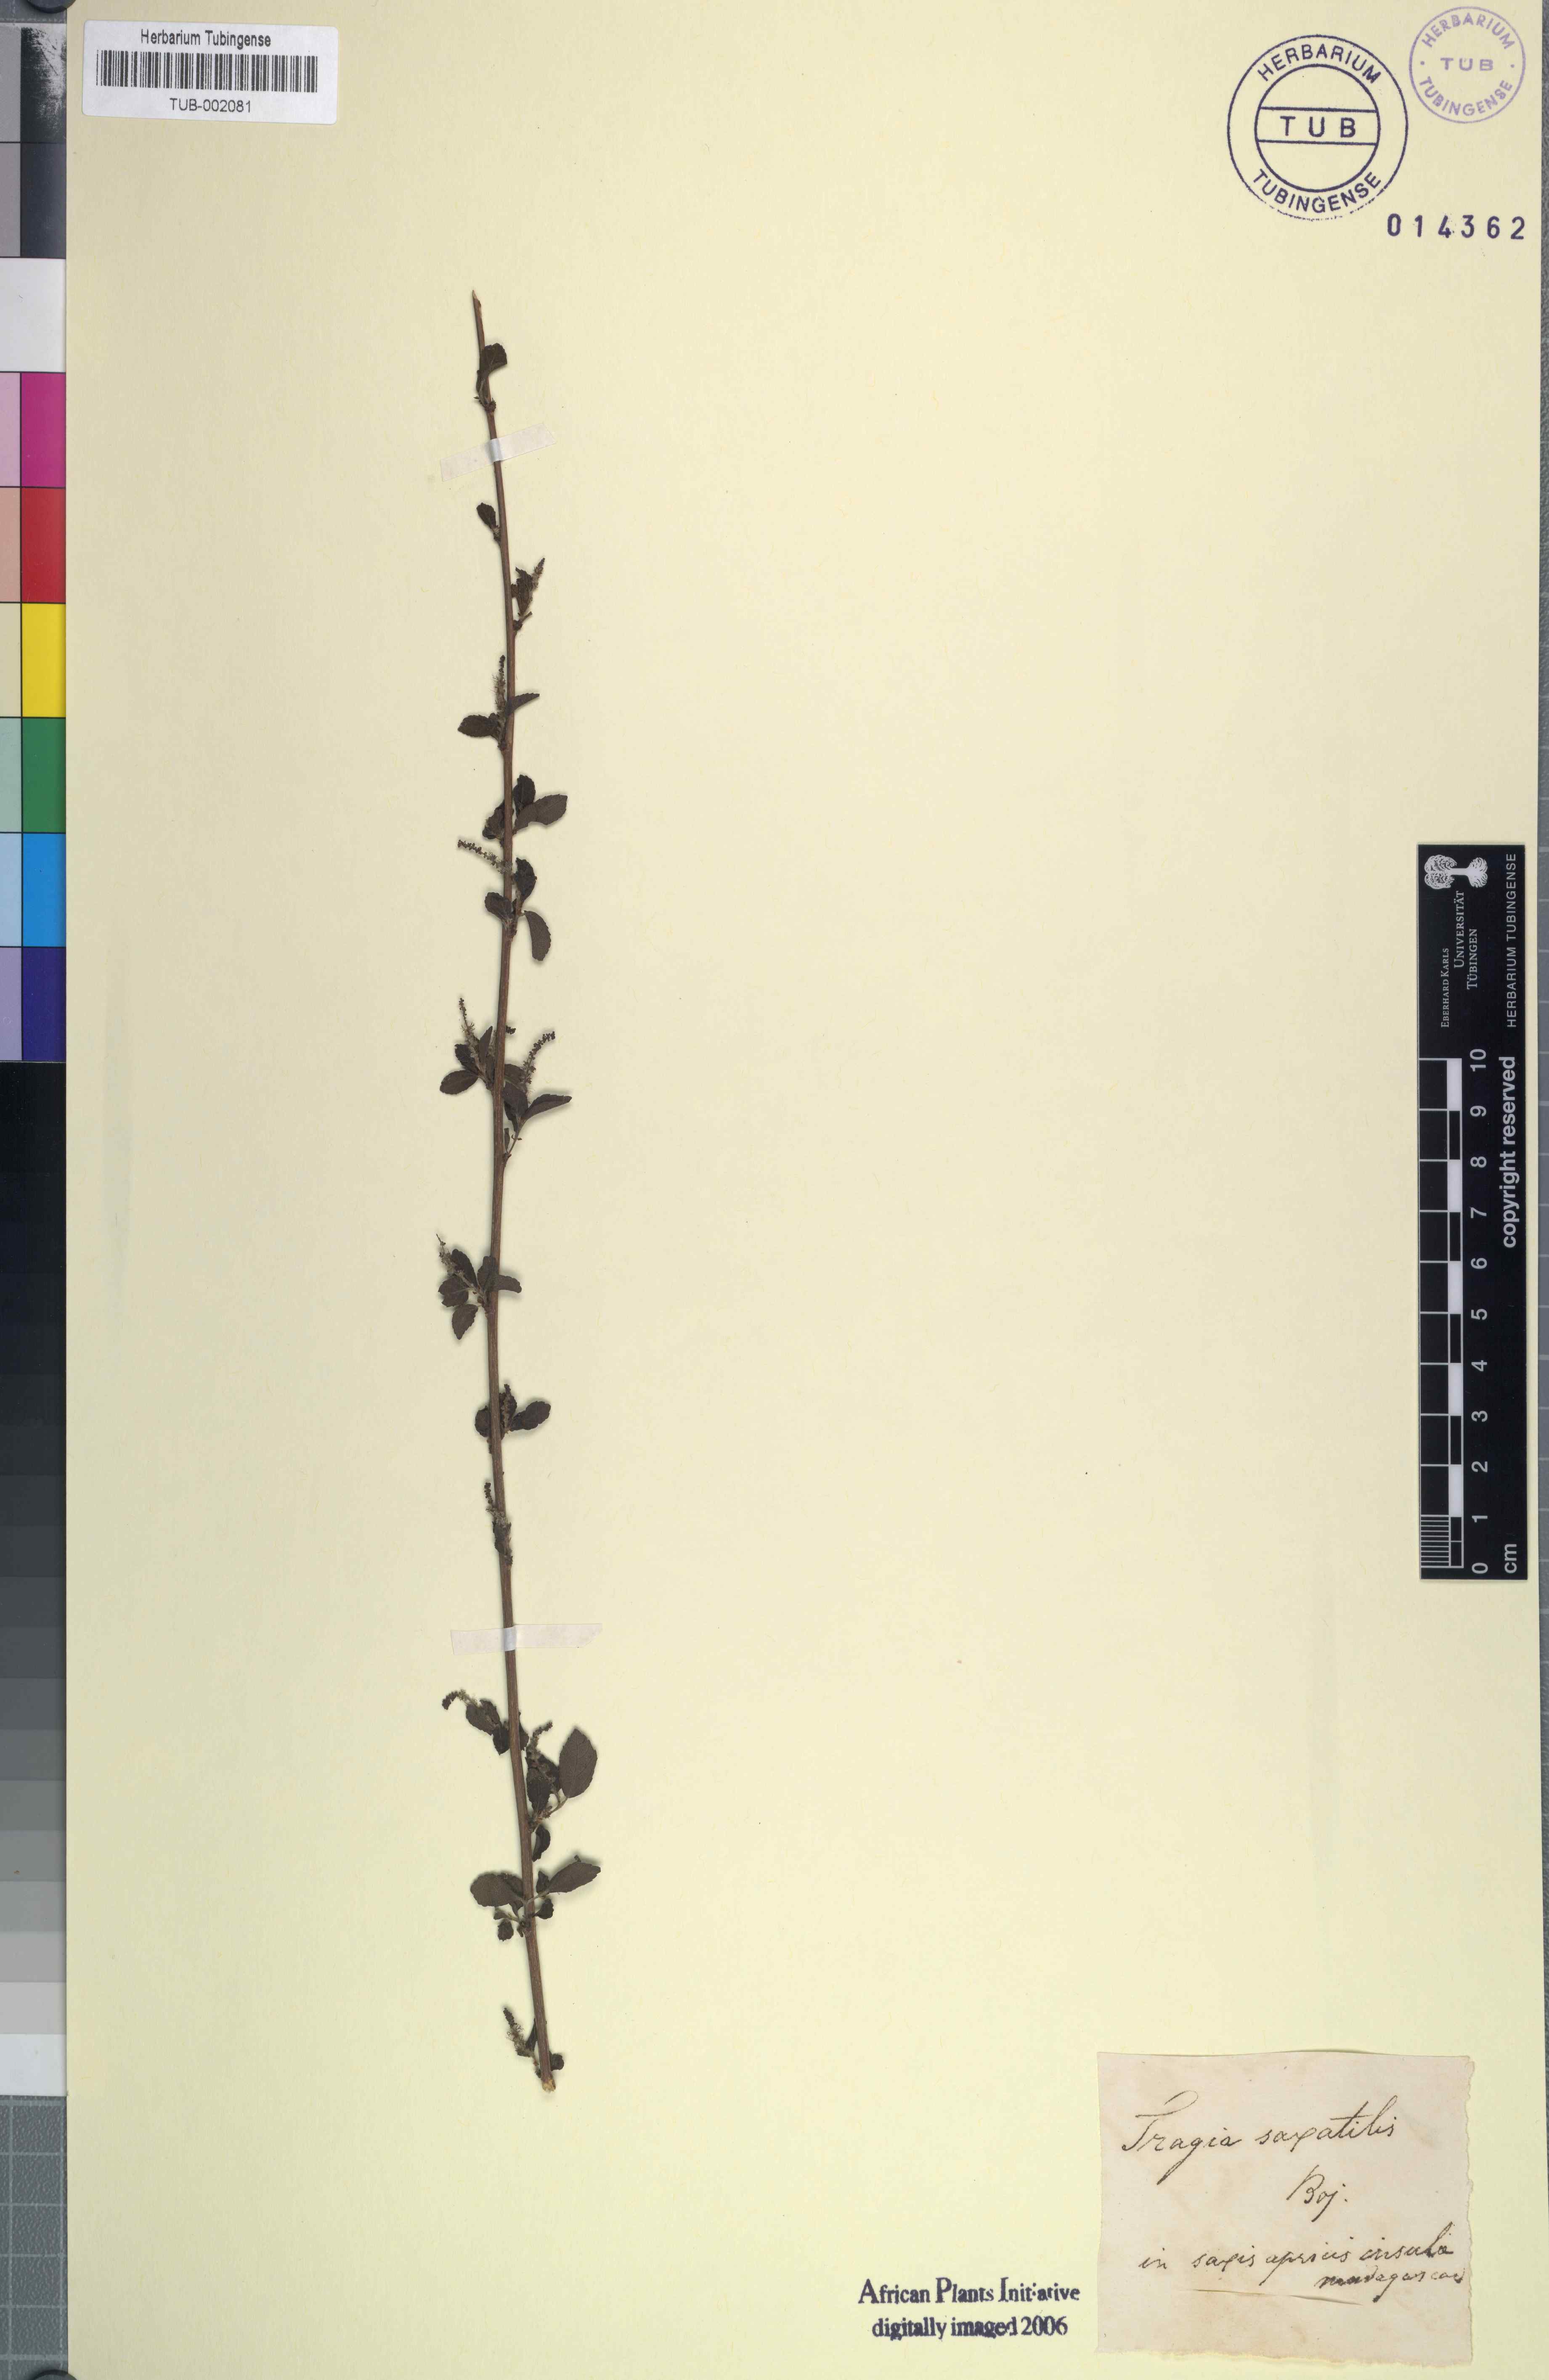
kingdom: Plantae
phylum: Tracheophyta
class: Magnoliopsida
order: Malpighiales
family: Euphorbiaceae
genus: Acalypha
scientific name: Acalypha spachiana
